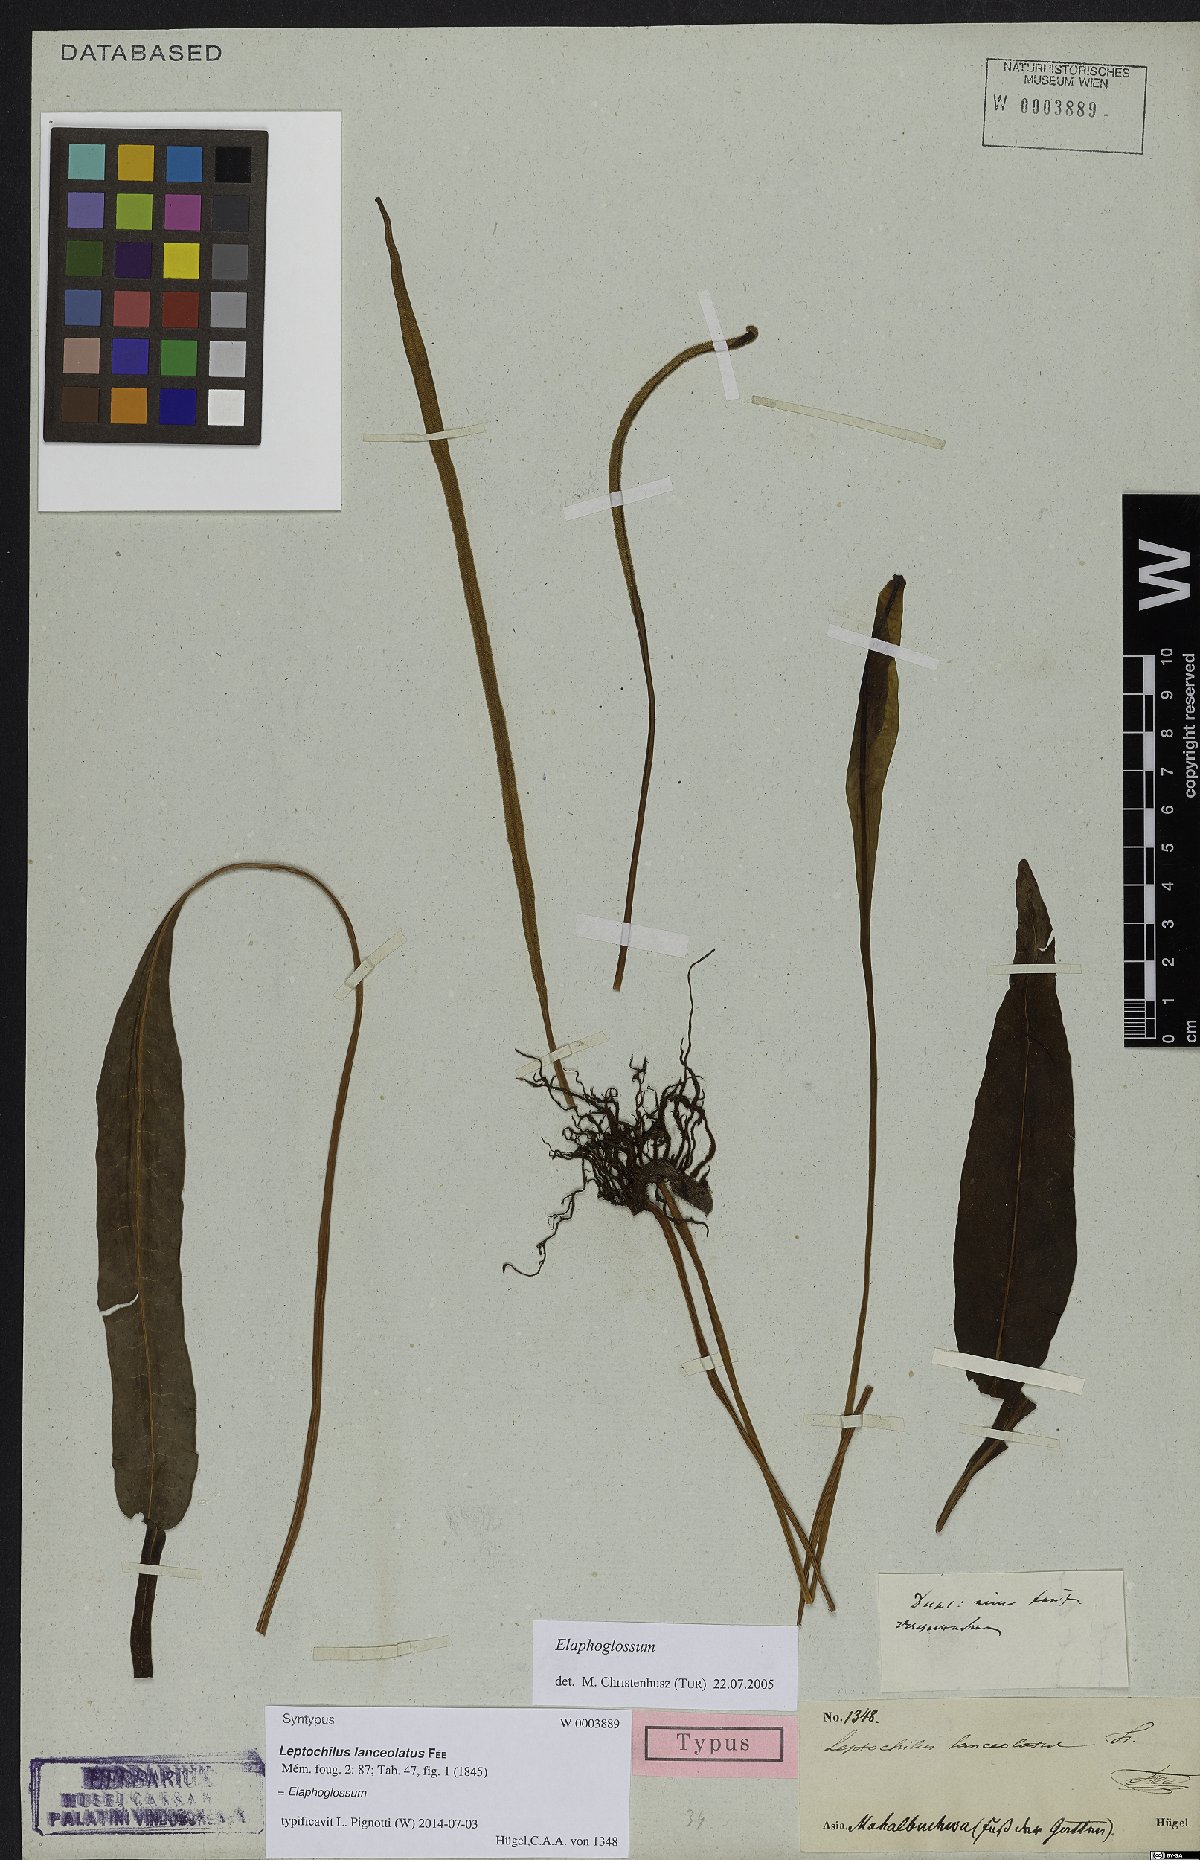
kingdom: Plantae
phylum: Tracheophyta
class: Polypodiopsida
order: Polypodiales
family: Dryopteridaceae
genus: Elaphoglossum
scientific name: Elaphoglossum
